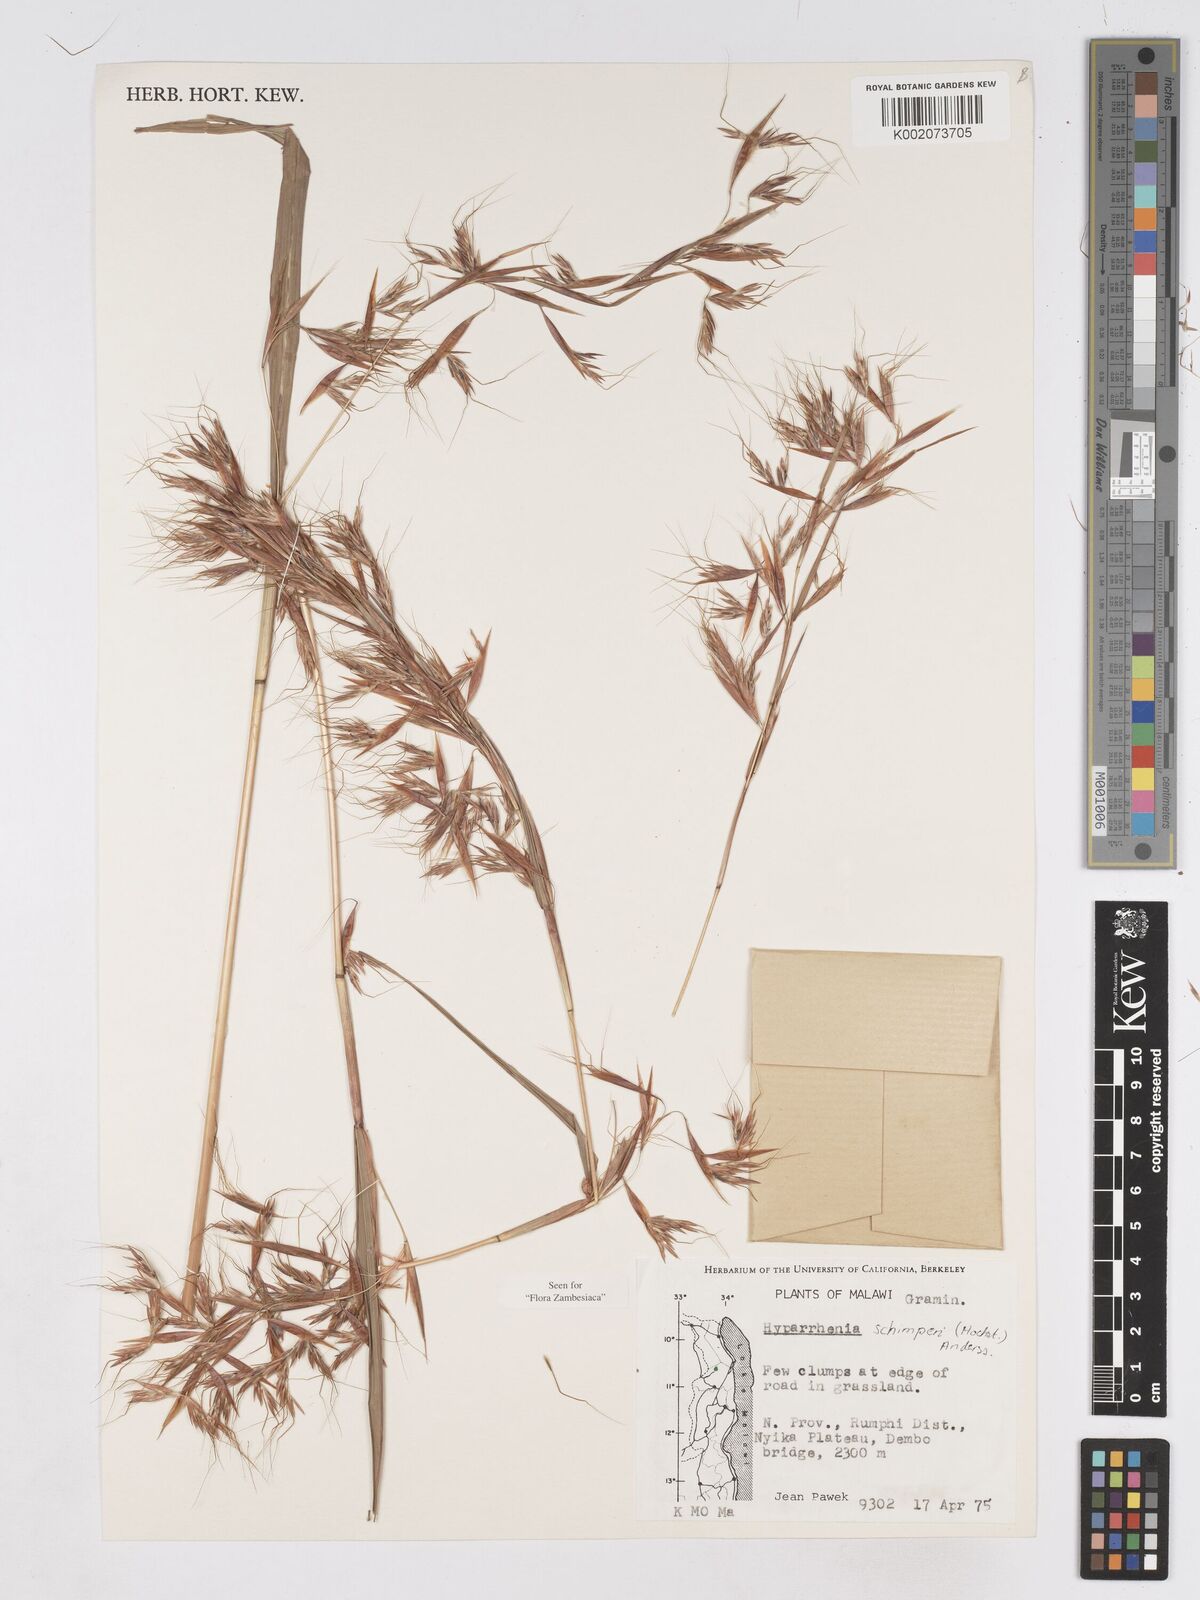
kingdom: Plantae
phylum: Tracheophyta
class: Liliopsida
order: Poales
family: Poaceae
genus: Hyparrhenia
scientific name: Hyparrhenia schimperi
